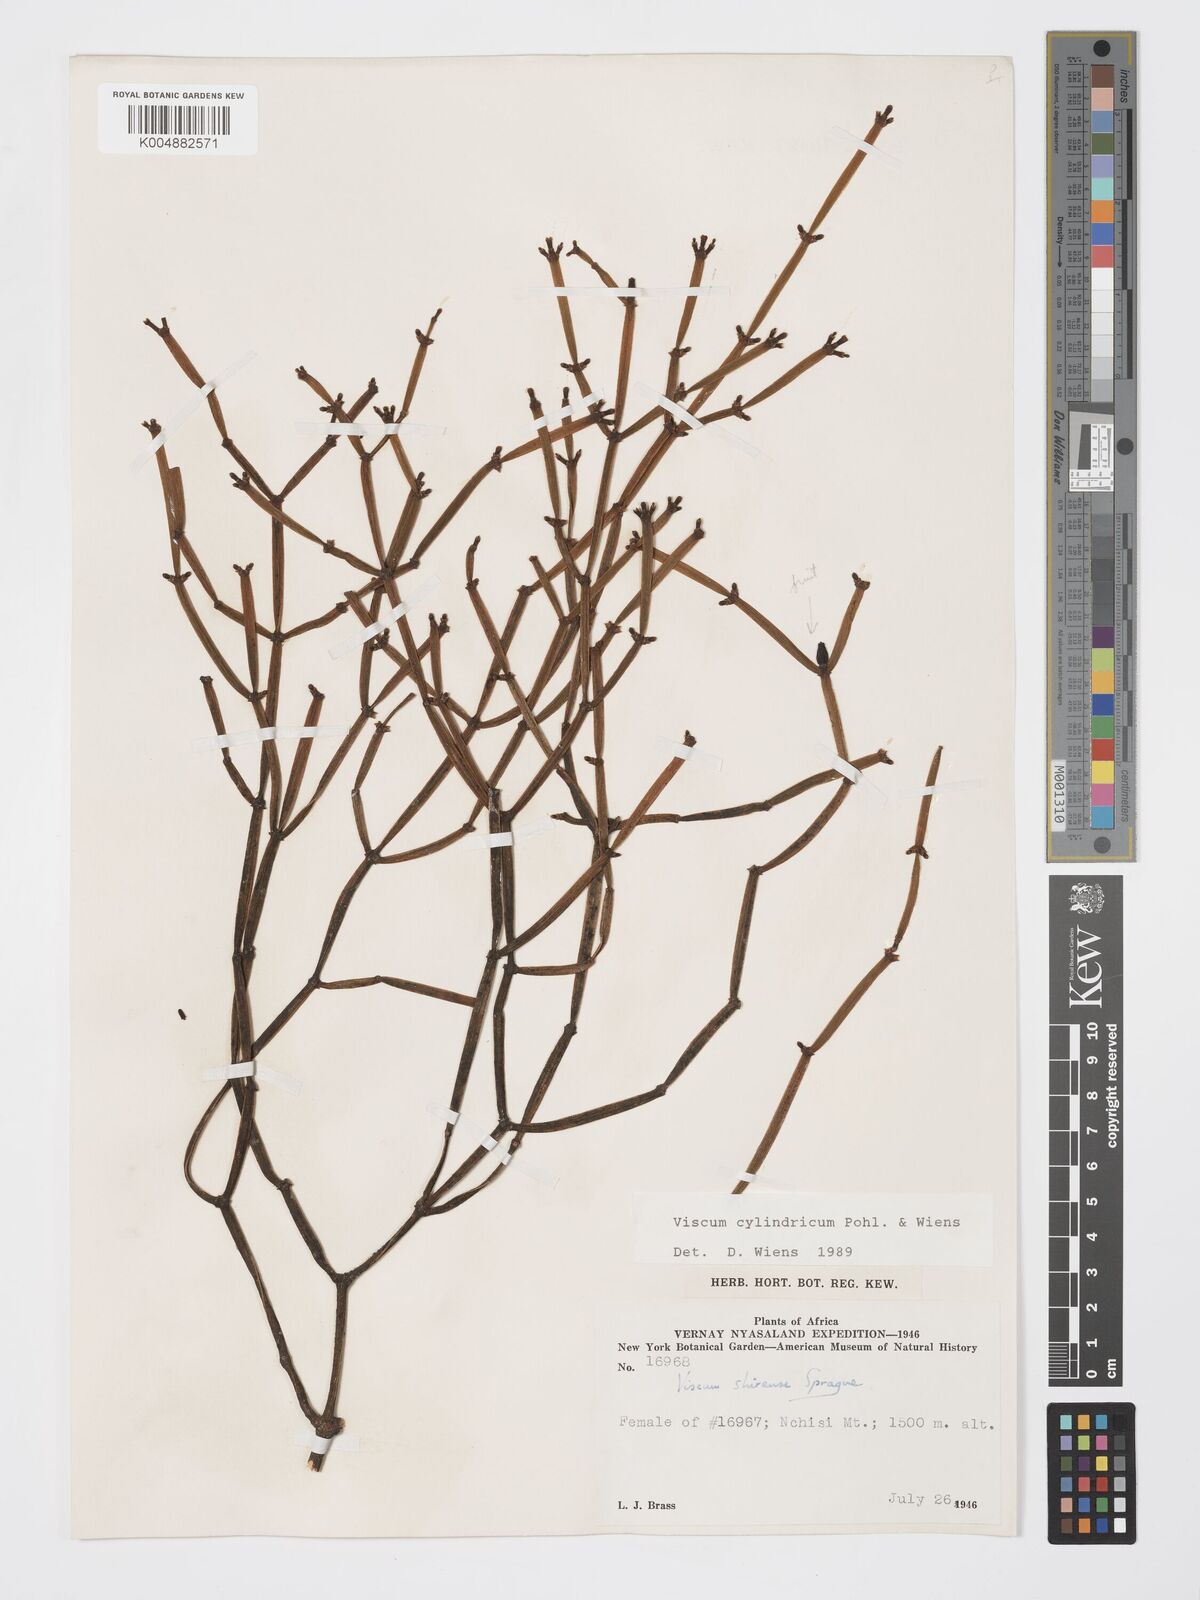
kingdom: Plantae
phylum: Tracheophyta
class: Magnoliopsida
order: Santalales
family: Viscaceae
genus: Viscum
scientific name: Viscum cylindricum
